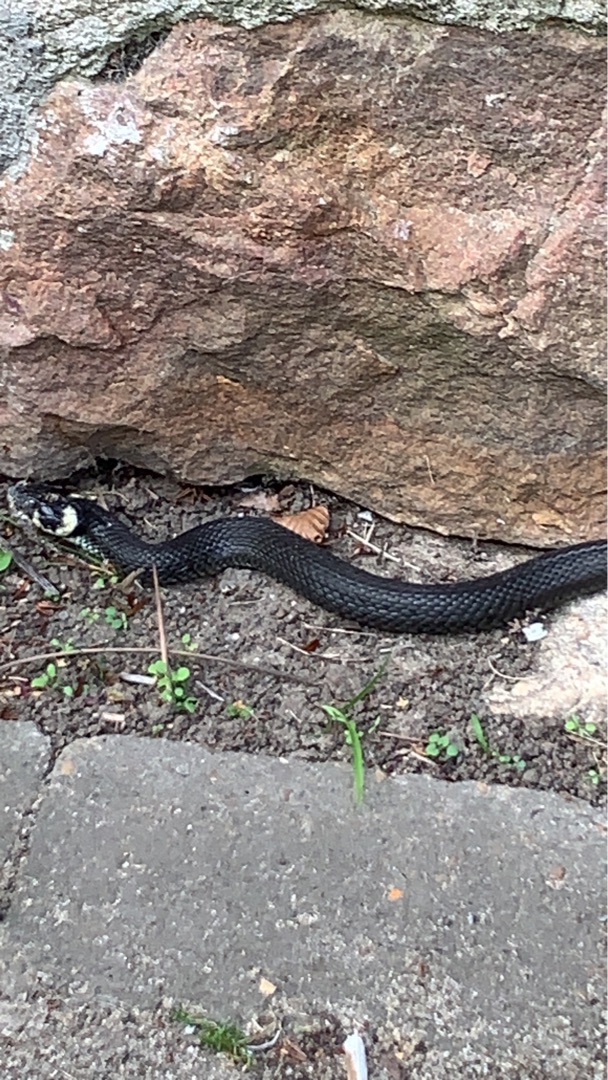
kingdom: Animalia
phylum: Chordata
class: Squamata
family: Colubridae
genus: Natrix
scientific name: Natrix natrix
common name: Snog
